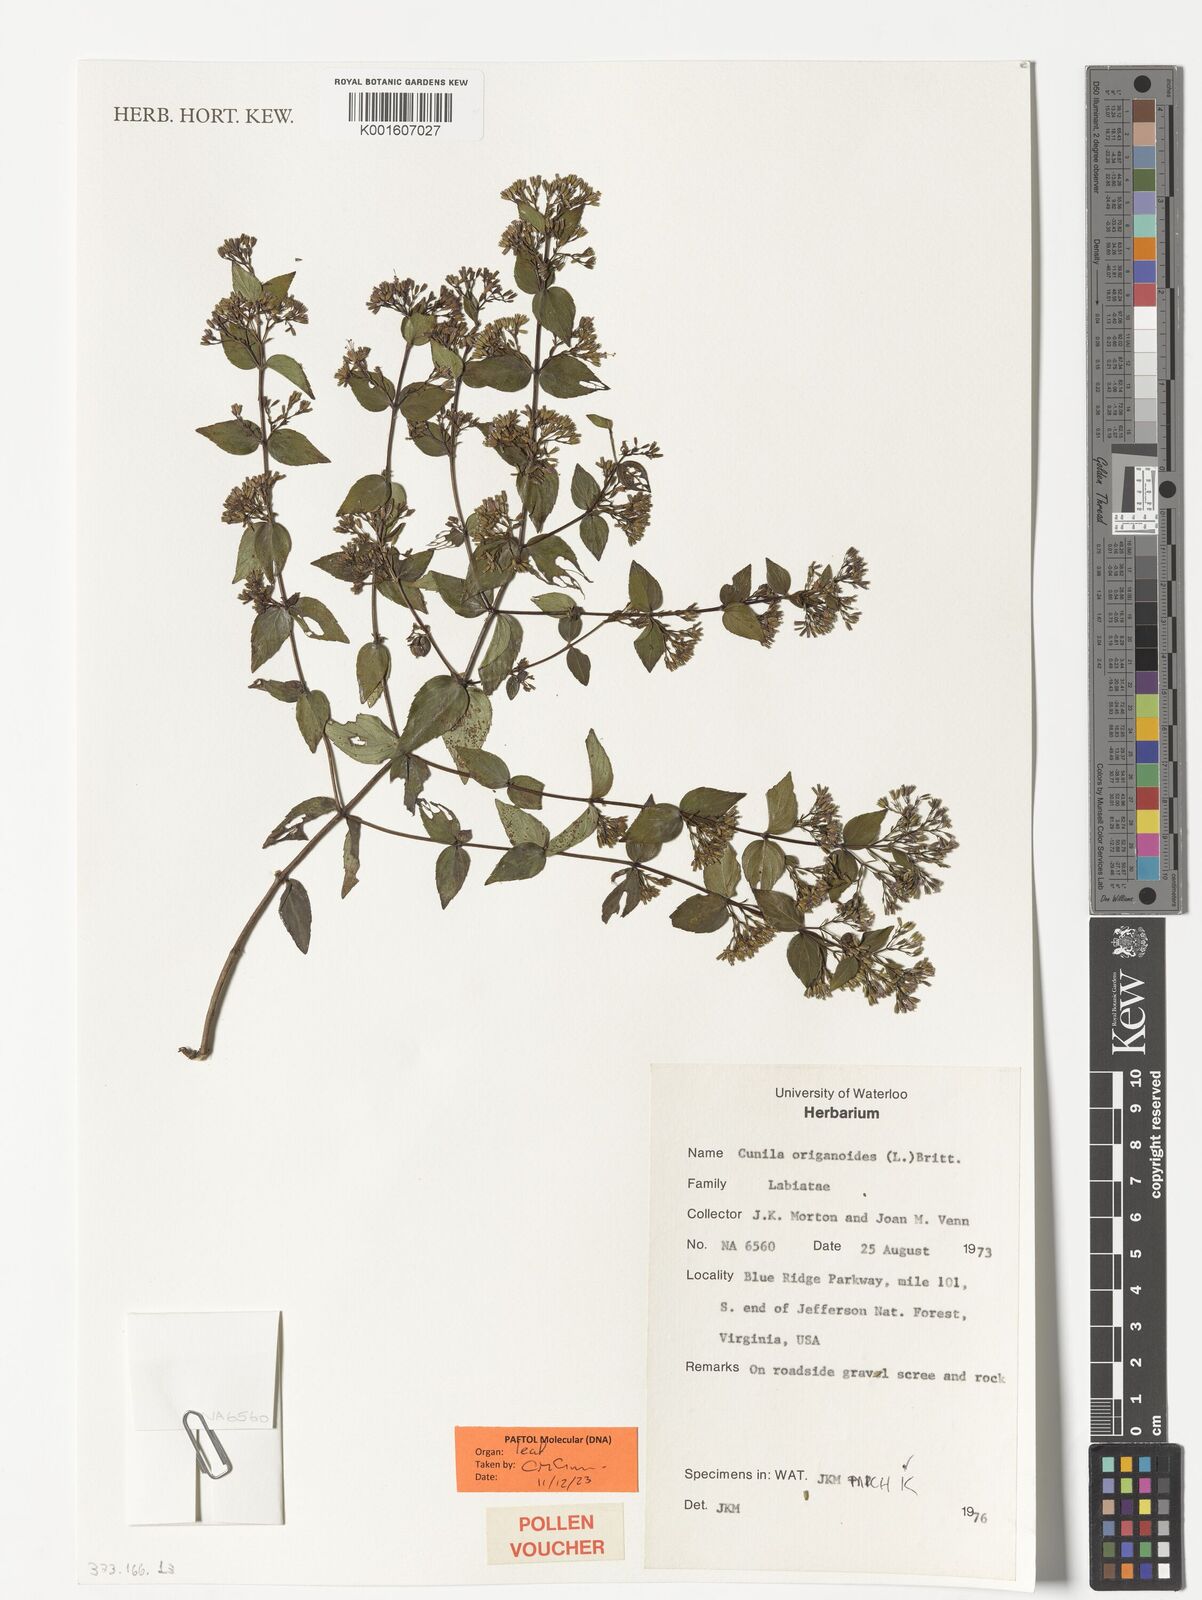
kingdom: Plantae
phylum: Tracheophyta
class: Magnoliopsida
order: Lamiales
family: Lamiaceae
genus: Cunila
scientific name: Cunila origanoides
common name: American dittany
